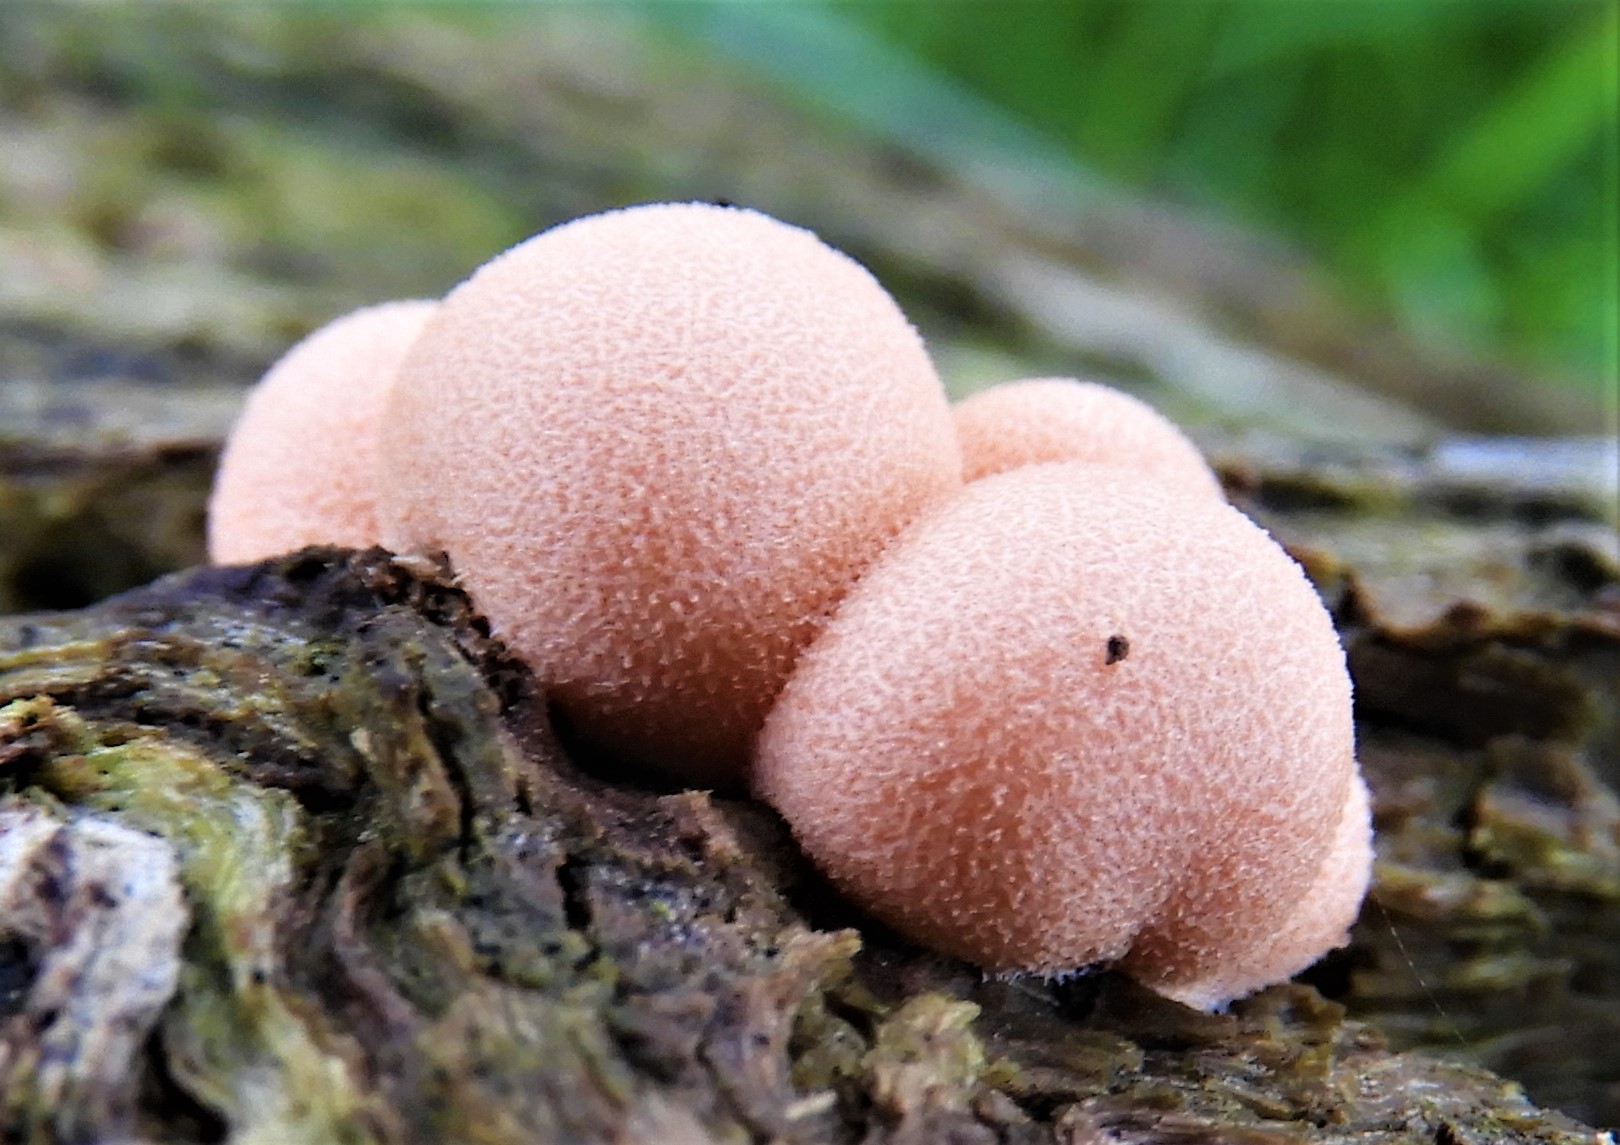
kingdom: Protozoa
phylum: Mycetozoa
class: Myxomycetes
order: Cribrariales
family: Tubiferaceae
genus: Lycogala
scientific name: Lycogala epidendrum
